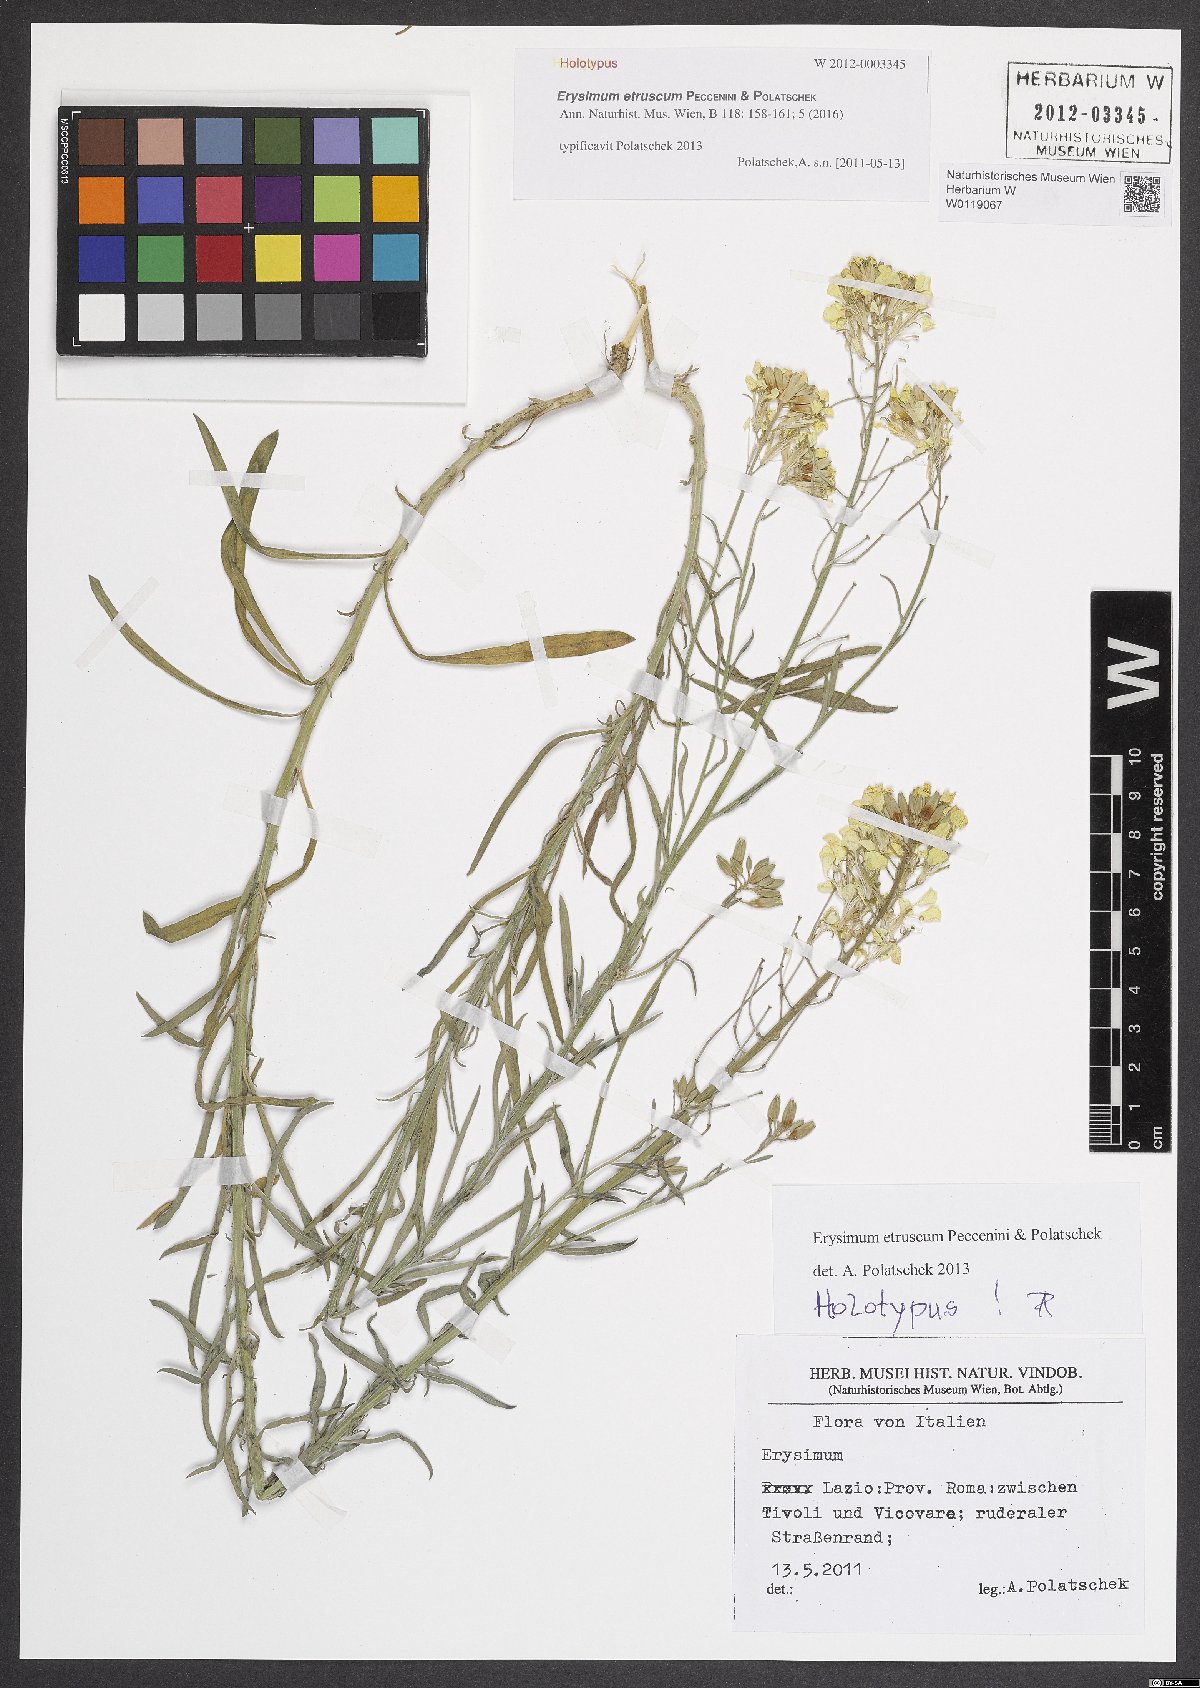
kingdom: Plantae
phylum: Tracheophyta
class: Magnoliopsida
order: Brassicales
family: Brassicaceae
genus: Erysimum
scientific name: Erysimum pseudorhaeticum
